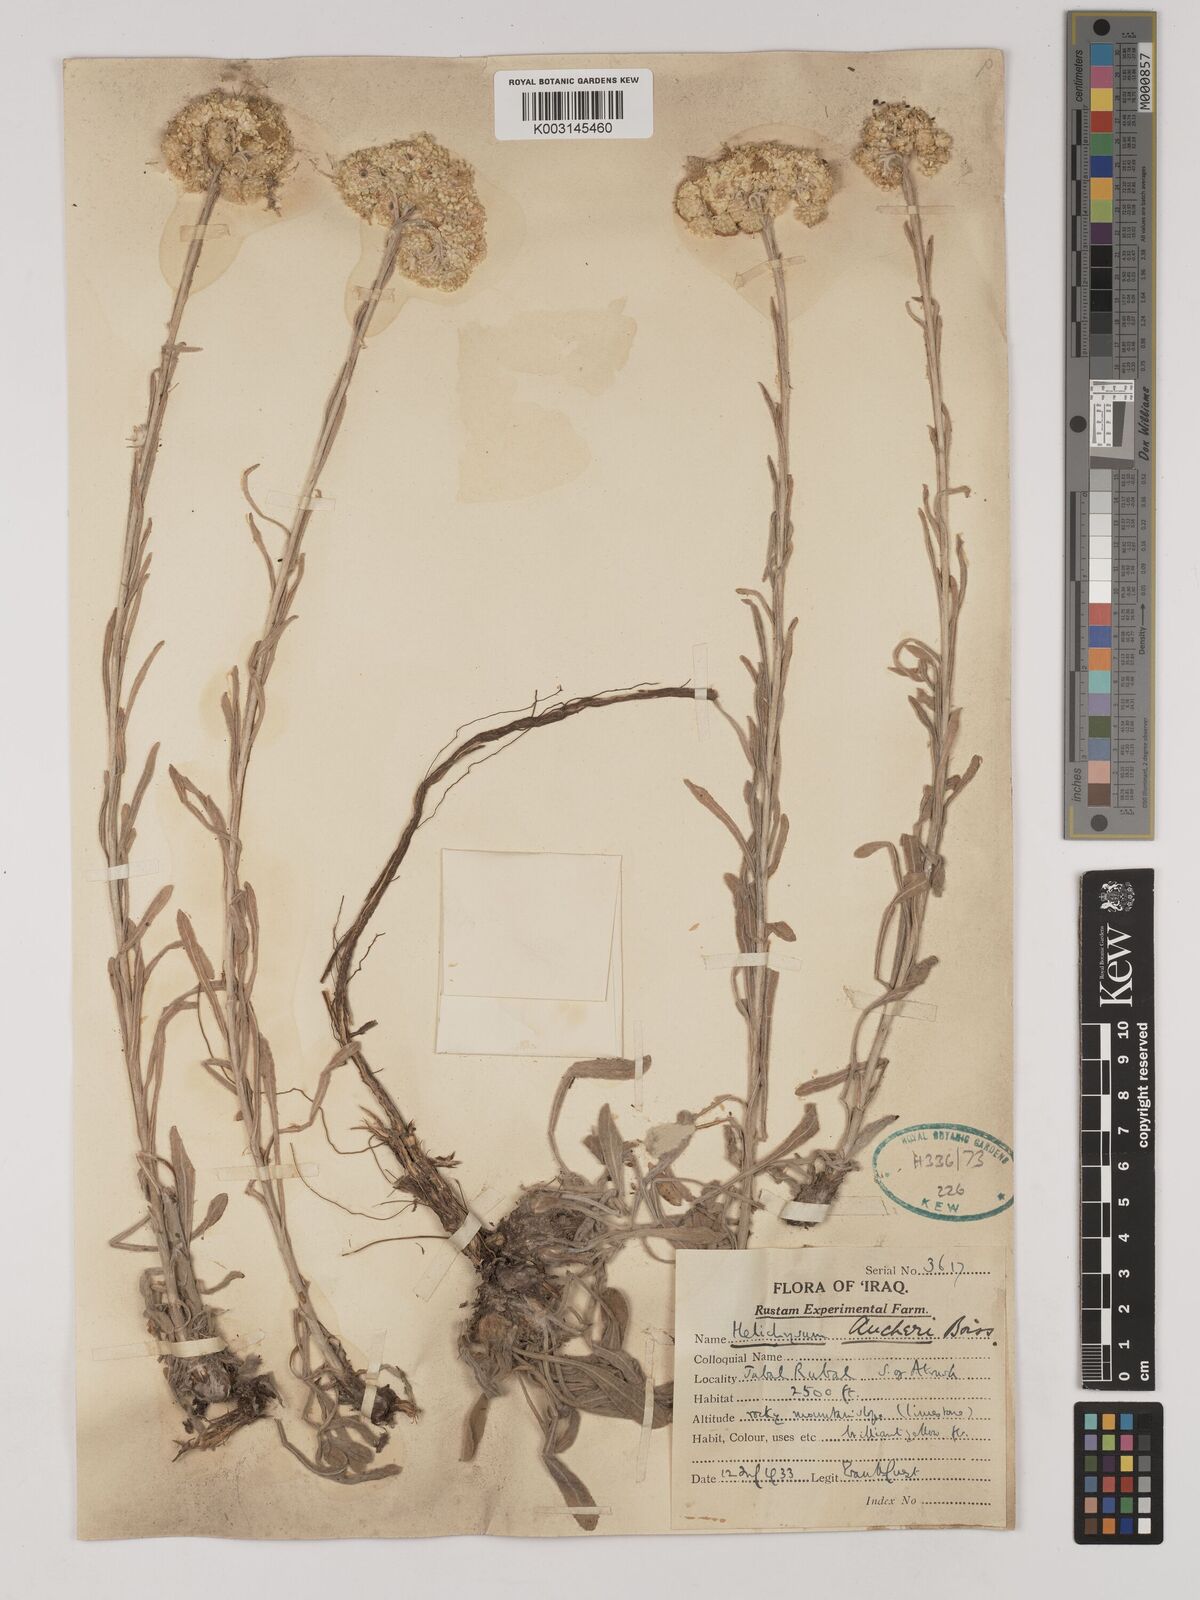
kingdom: Plantae
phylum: Tracheophyta
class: Magnoliopsida
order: Asterales
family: Asteraceae
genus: Helichrysum
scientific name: Helichrysum arenarium
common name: Strawflower
